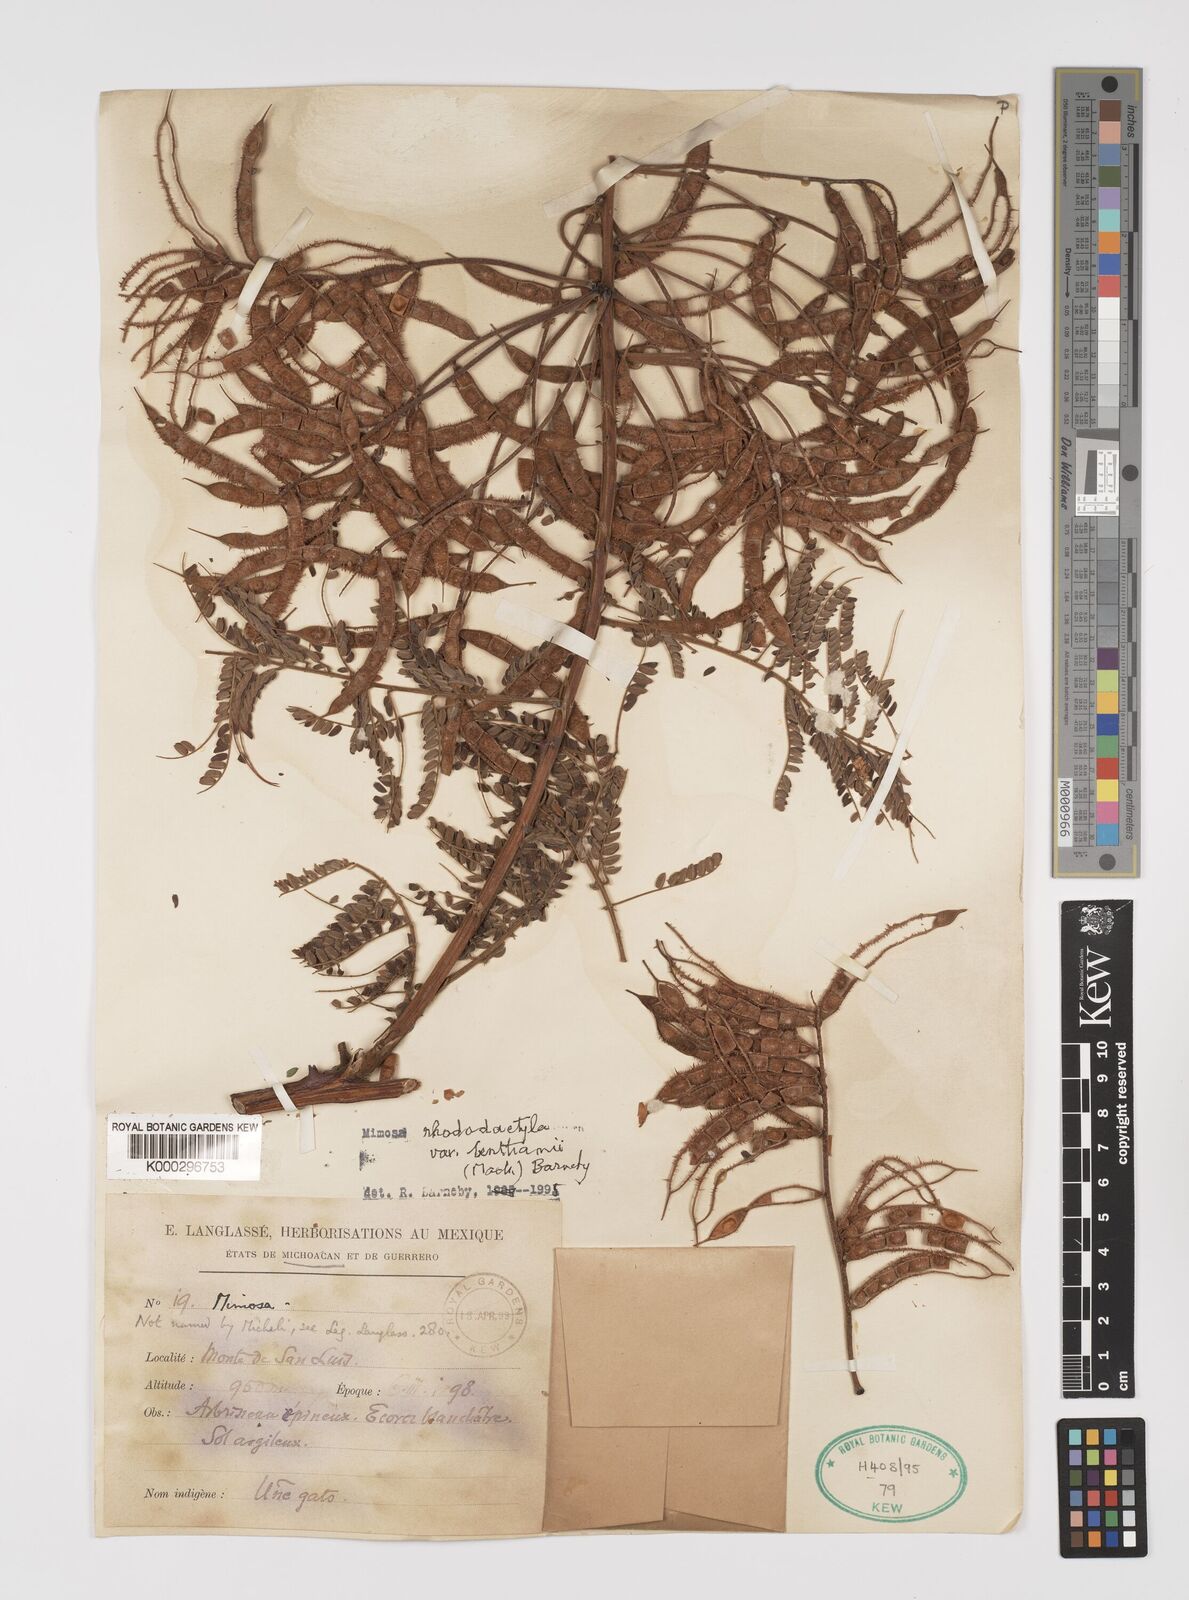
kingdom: Plantae
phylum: Tracheophyta
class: Magnoliopsida
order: Fabales
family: Fabaceae
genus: Mimosa
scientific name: Mimosa benthamii
